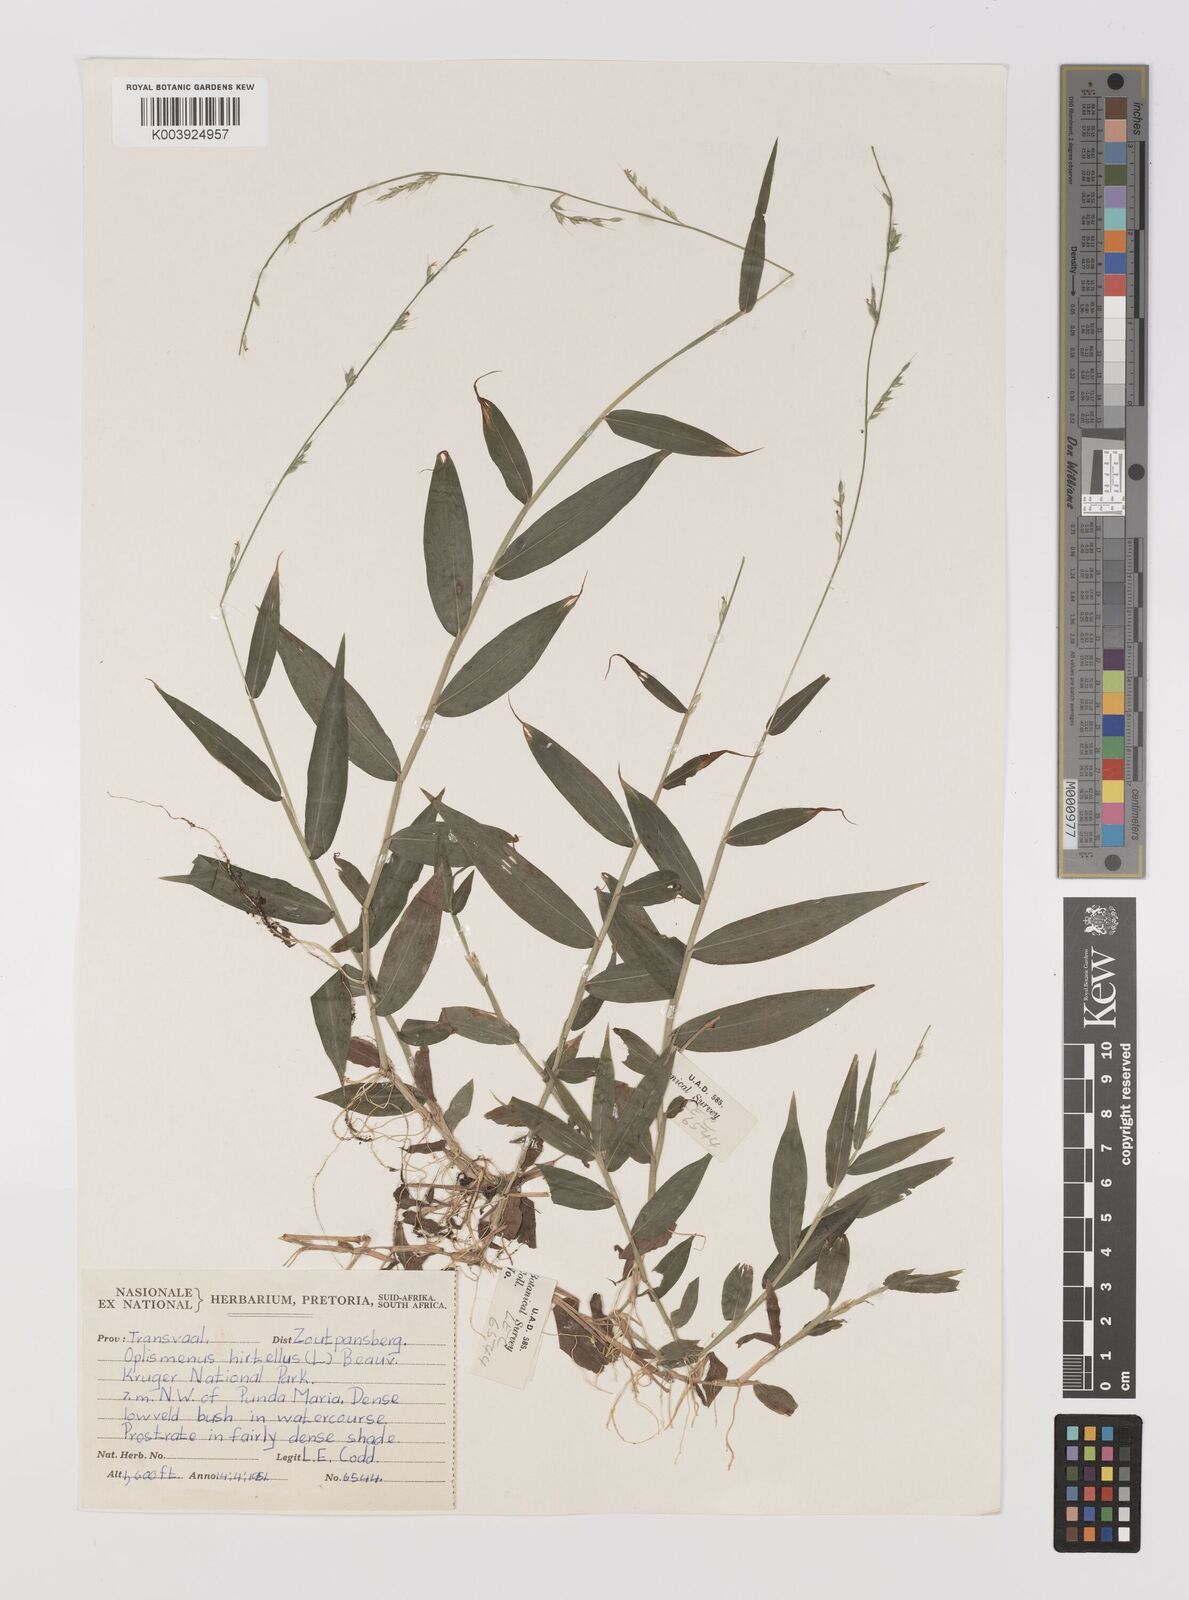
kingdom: Plantae
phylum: Tracheophyta
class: Liliopsida
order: Poales
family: Poaceae
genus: Oplismenus
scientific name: Oplismenus hirtellus
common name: Basketgrass
